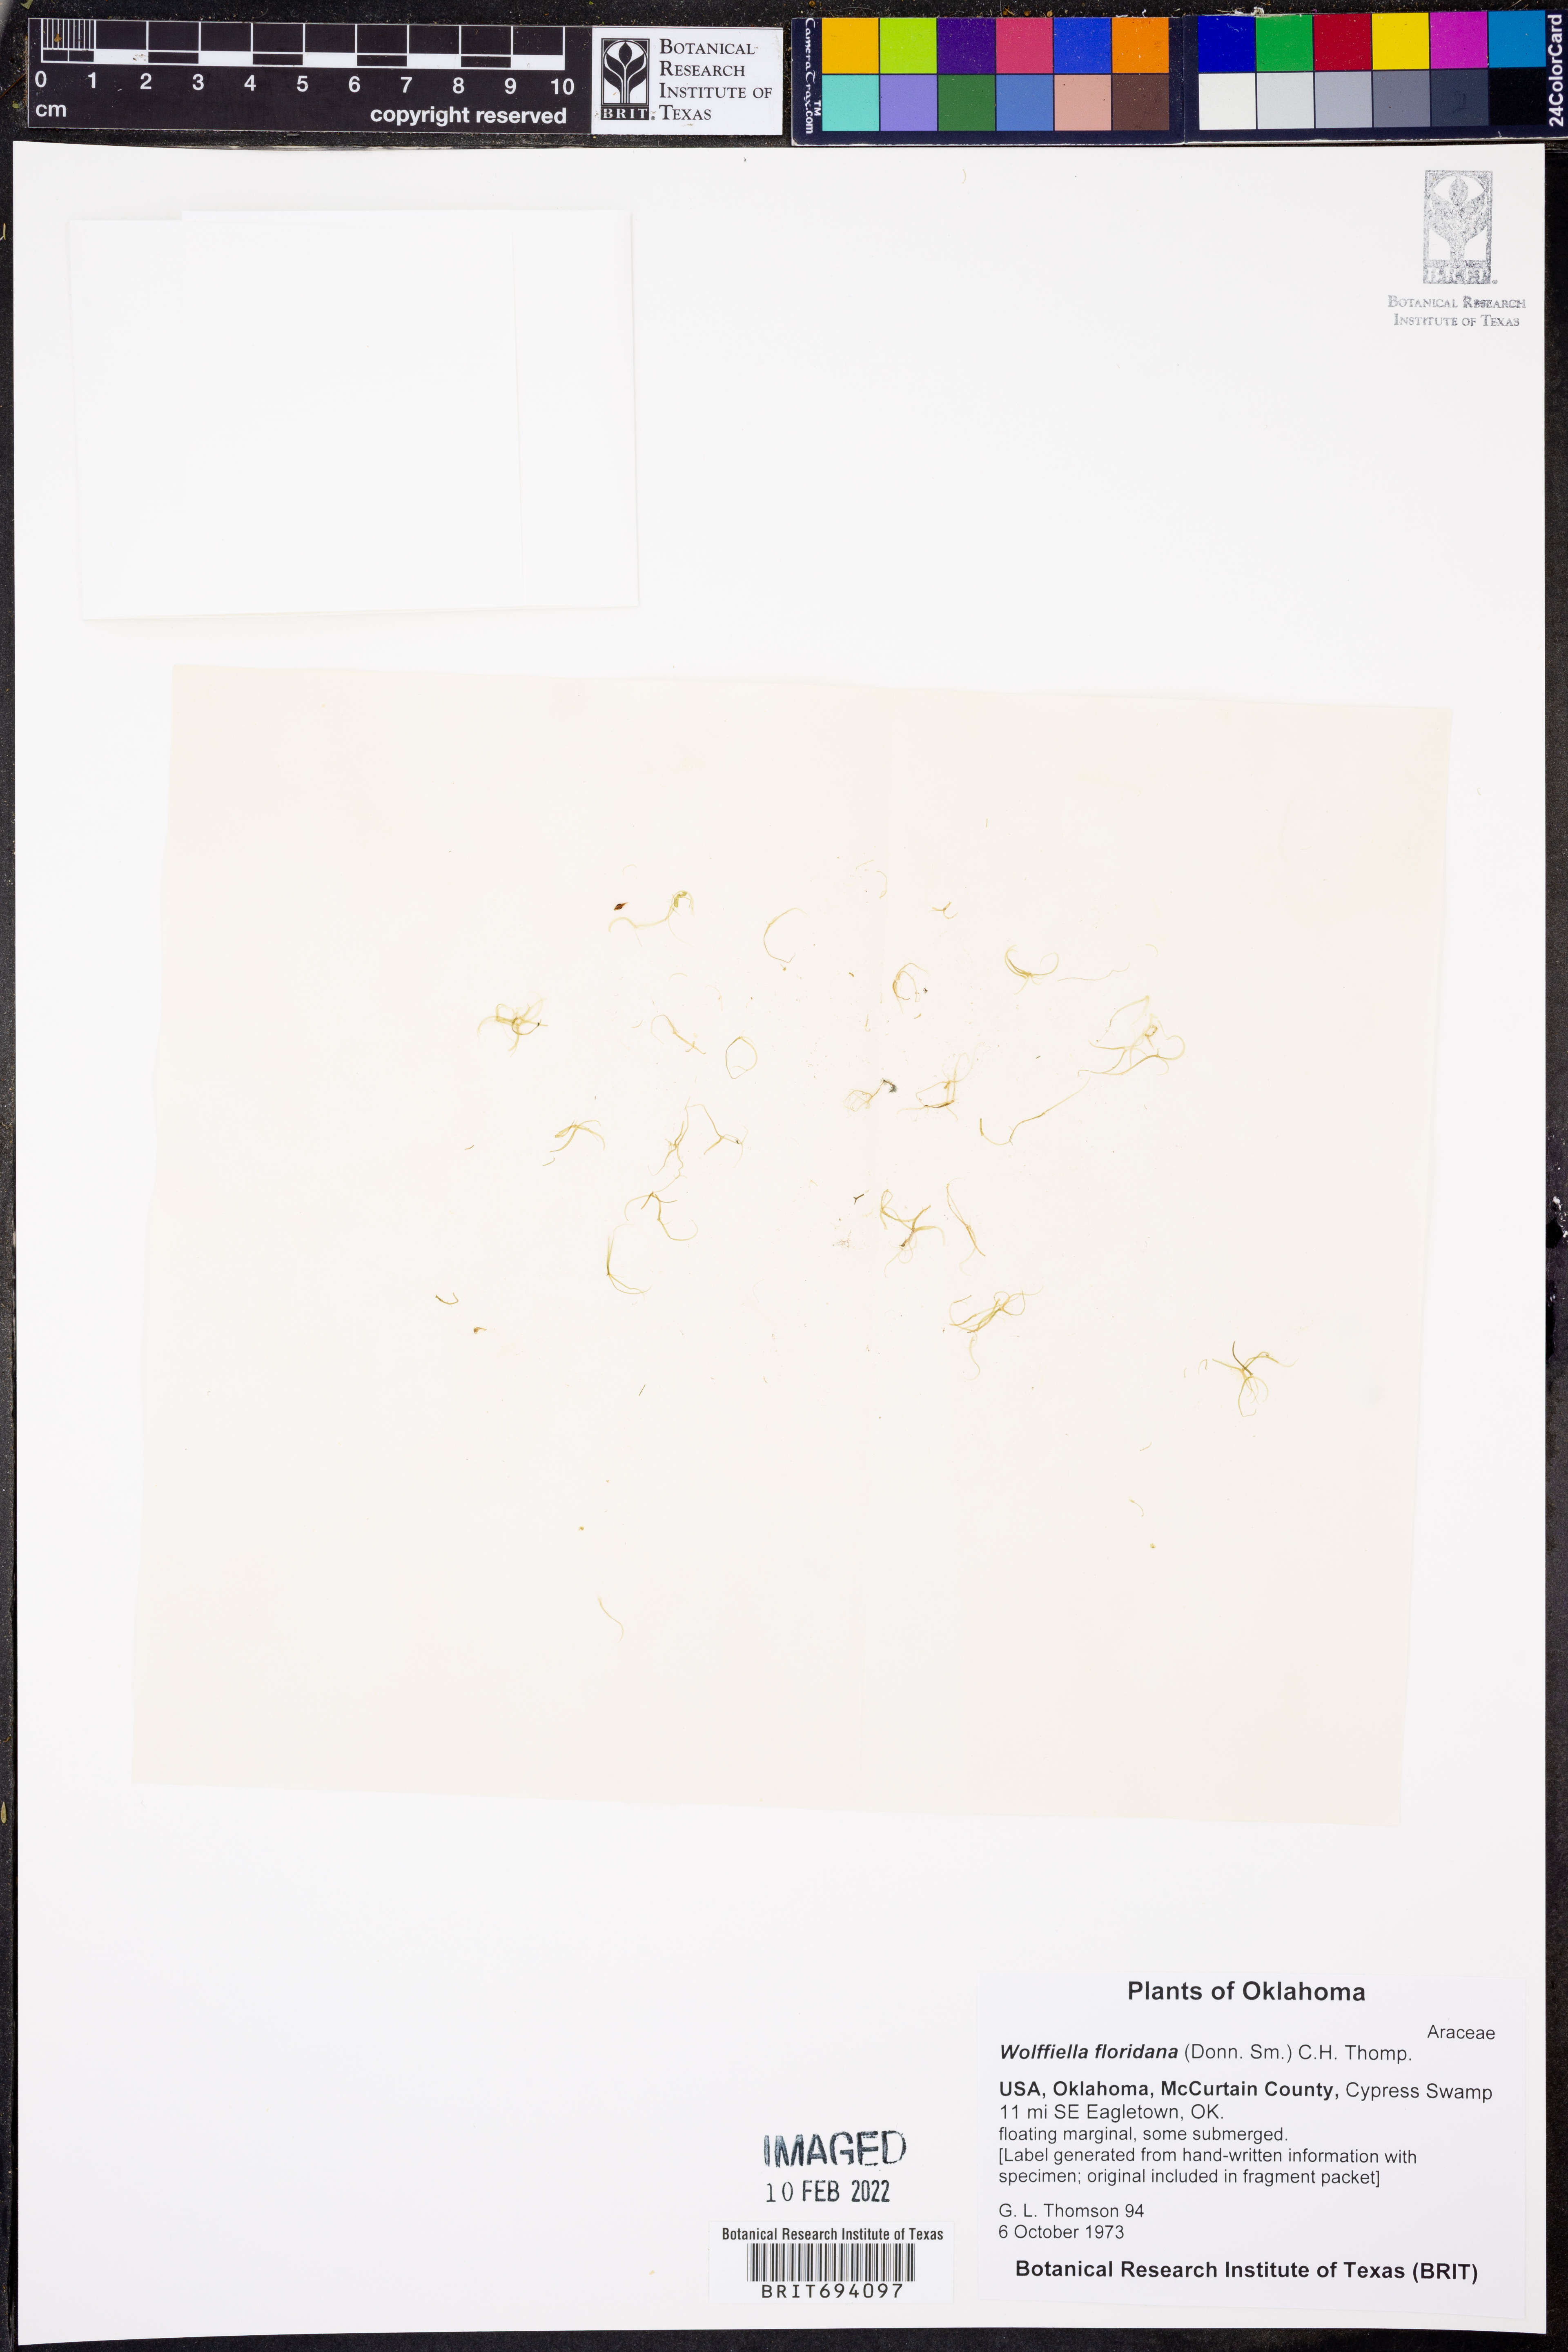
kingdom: Plantae
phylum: Tracheophyta
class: Liliopsida
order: Alismatales
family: Araceae
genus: Wolffiella
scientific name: Wolffiella gladiata
